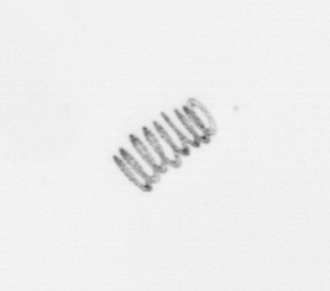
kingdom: Chromista
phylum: Ochrophyta
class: Bacillariophyceae
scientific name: Bacillariophyceae
